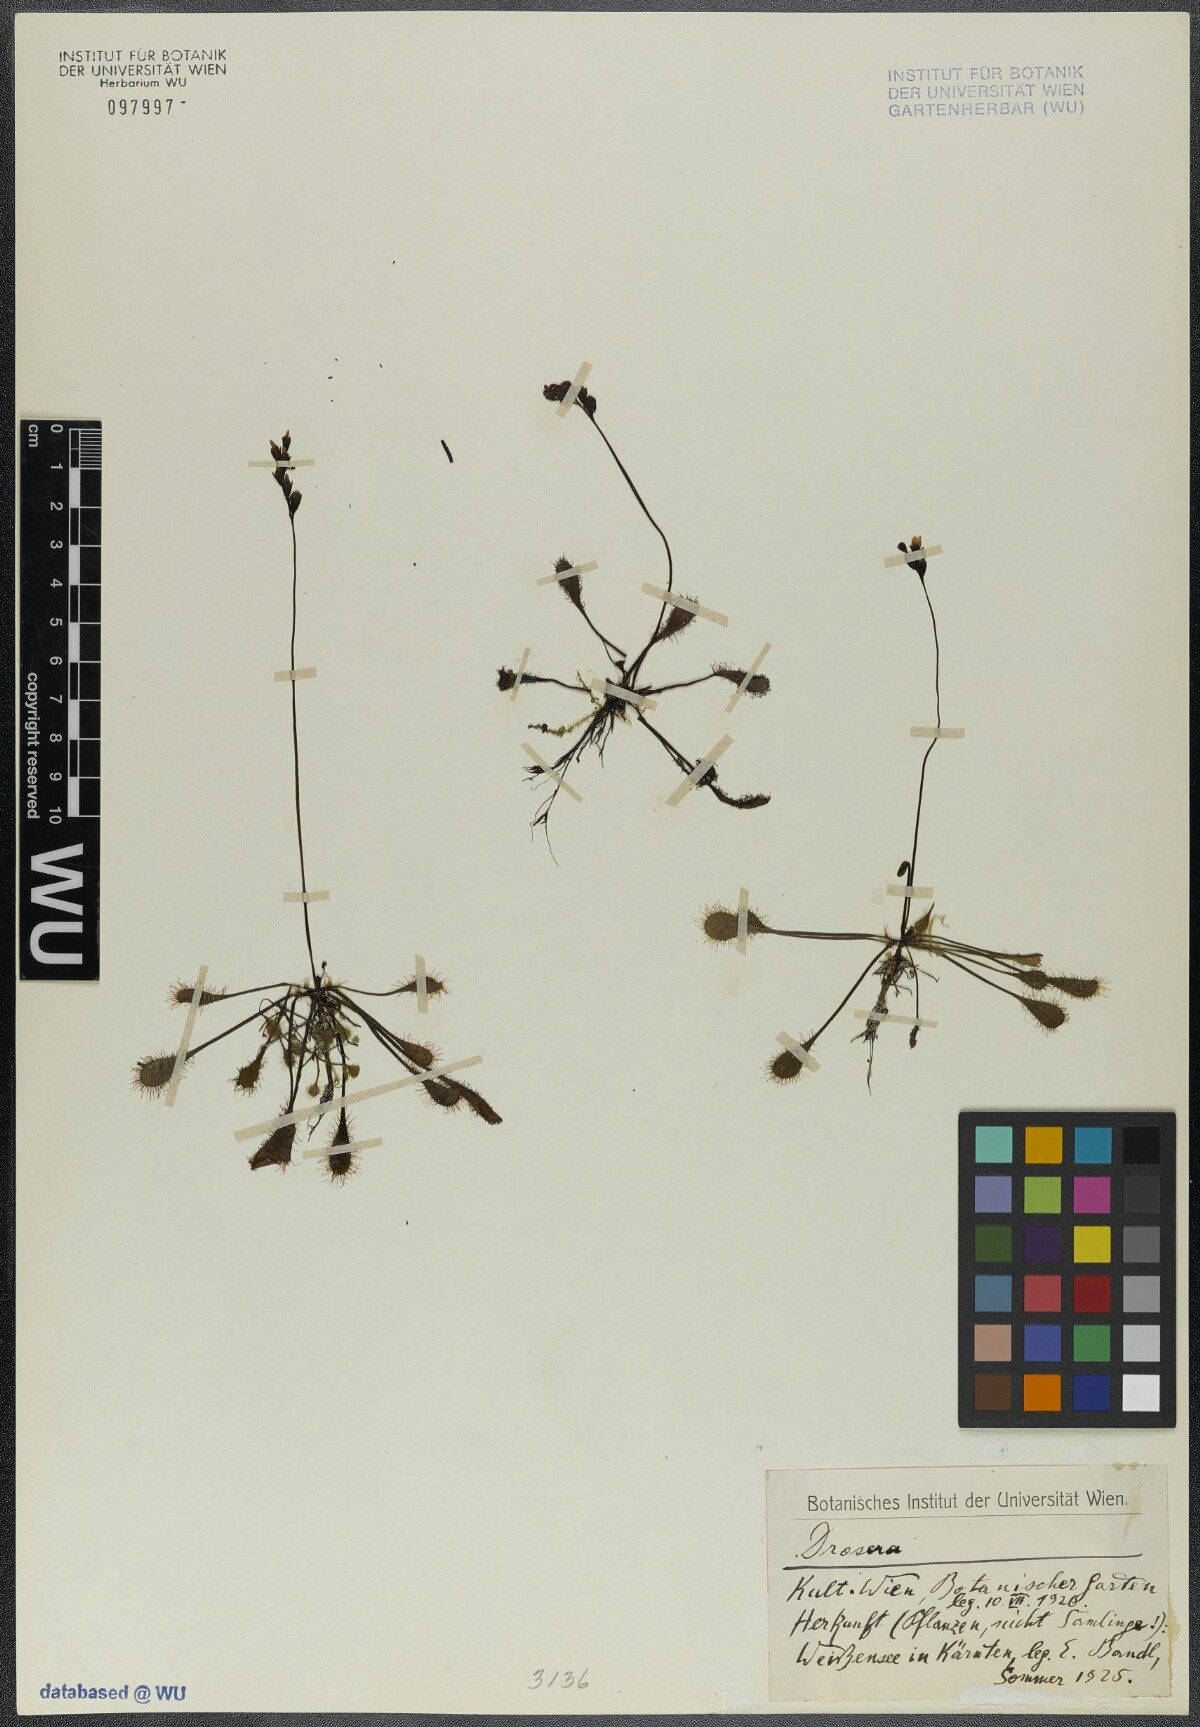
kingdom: Plantae
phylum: Tracheophyta
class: Magnoliopsida
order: Caryophyllales
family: Droseraceae
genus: Drosera
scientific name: Drosera
